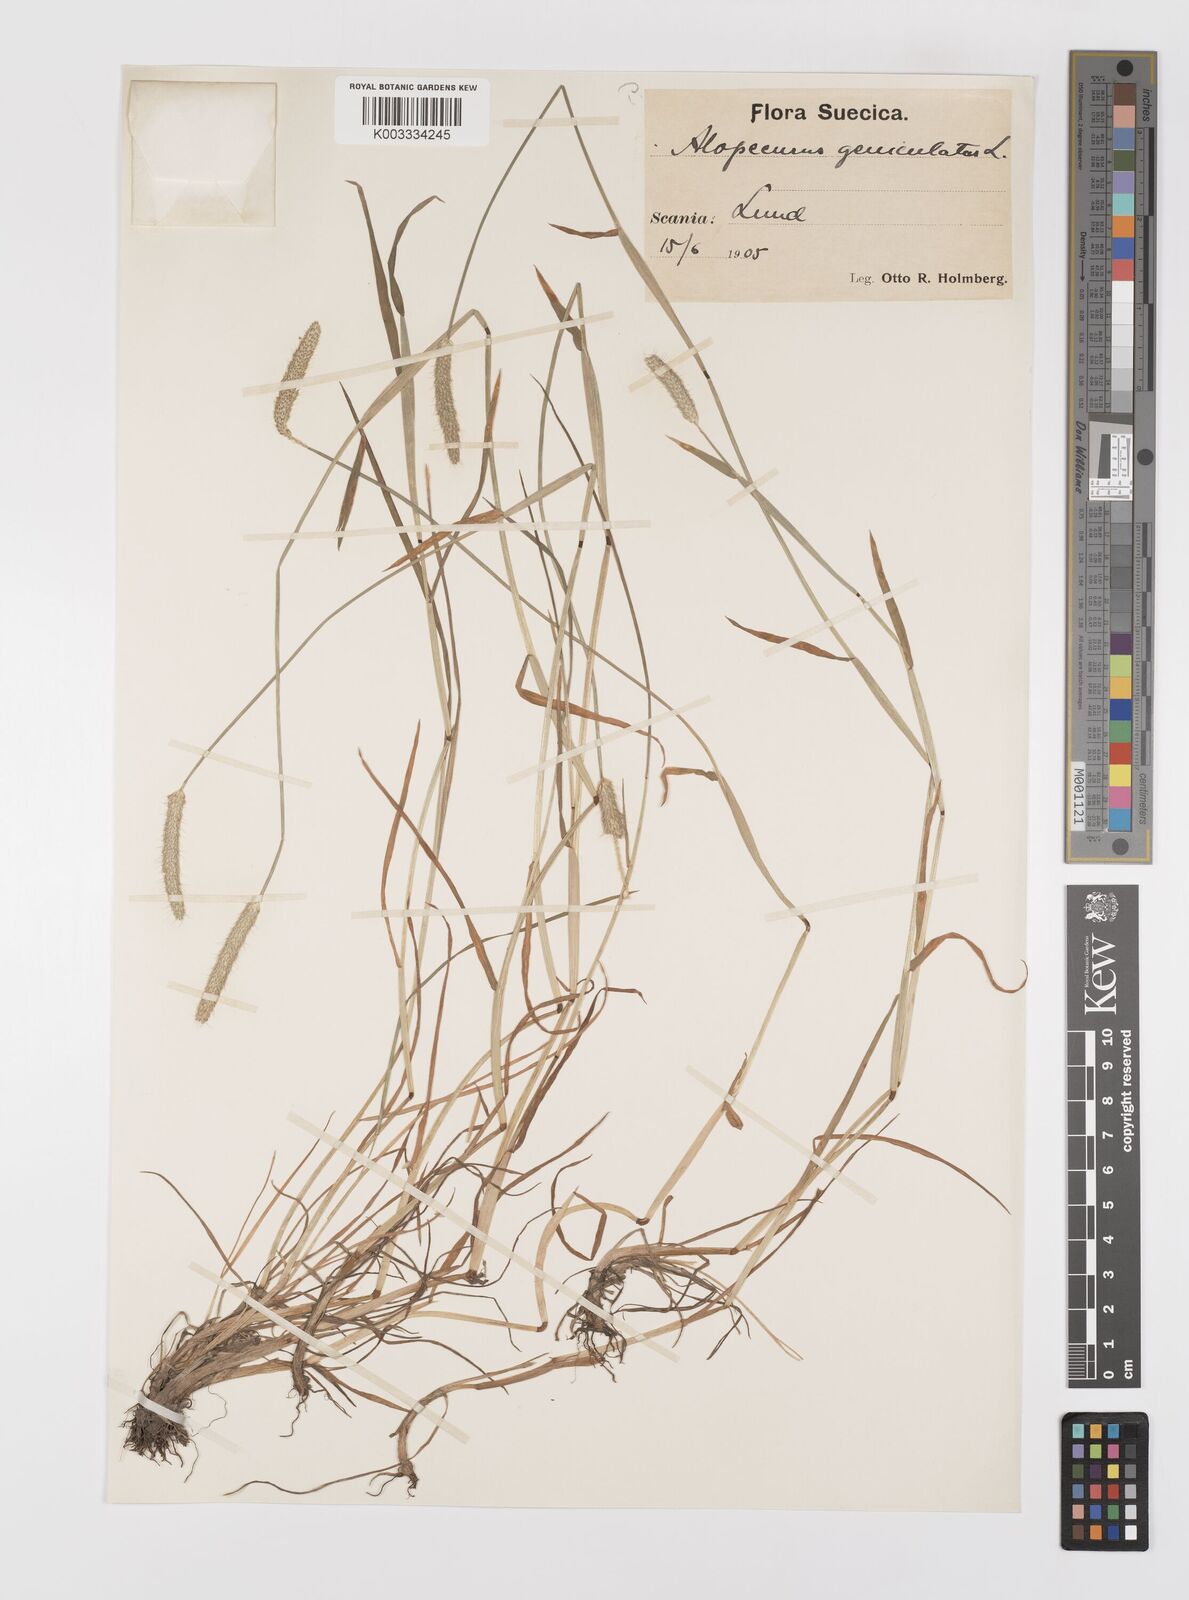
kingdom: Plantae
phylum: Tracheophyta
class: Liliopsida
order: Poales
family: Poaceae
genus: Alopecurus
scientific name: Alopecurus geniculatus
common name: Water foxtail
